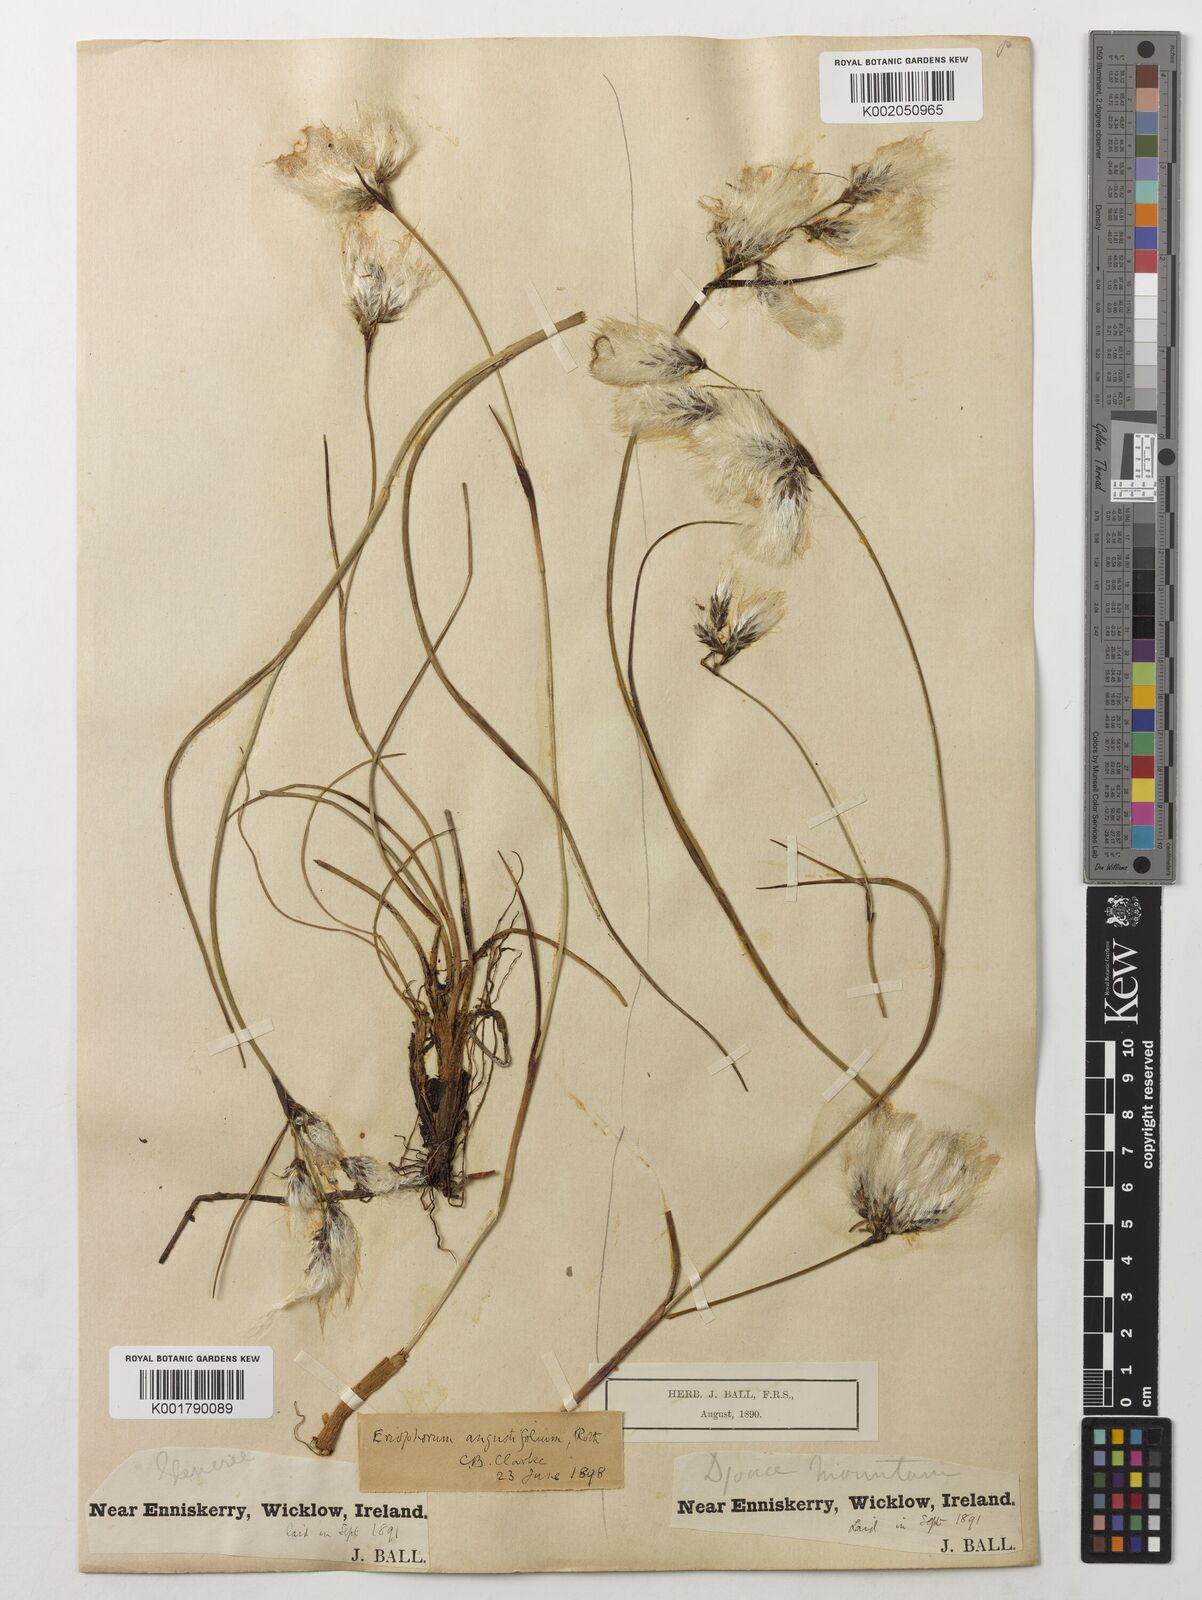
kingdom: Plantae
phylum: Tracheophyta
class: Liliopsida
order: Poales
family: Cyperaceae
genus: Eriophorum
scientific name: Eriophorum angustifolium
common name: Common cottongrass
